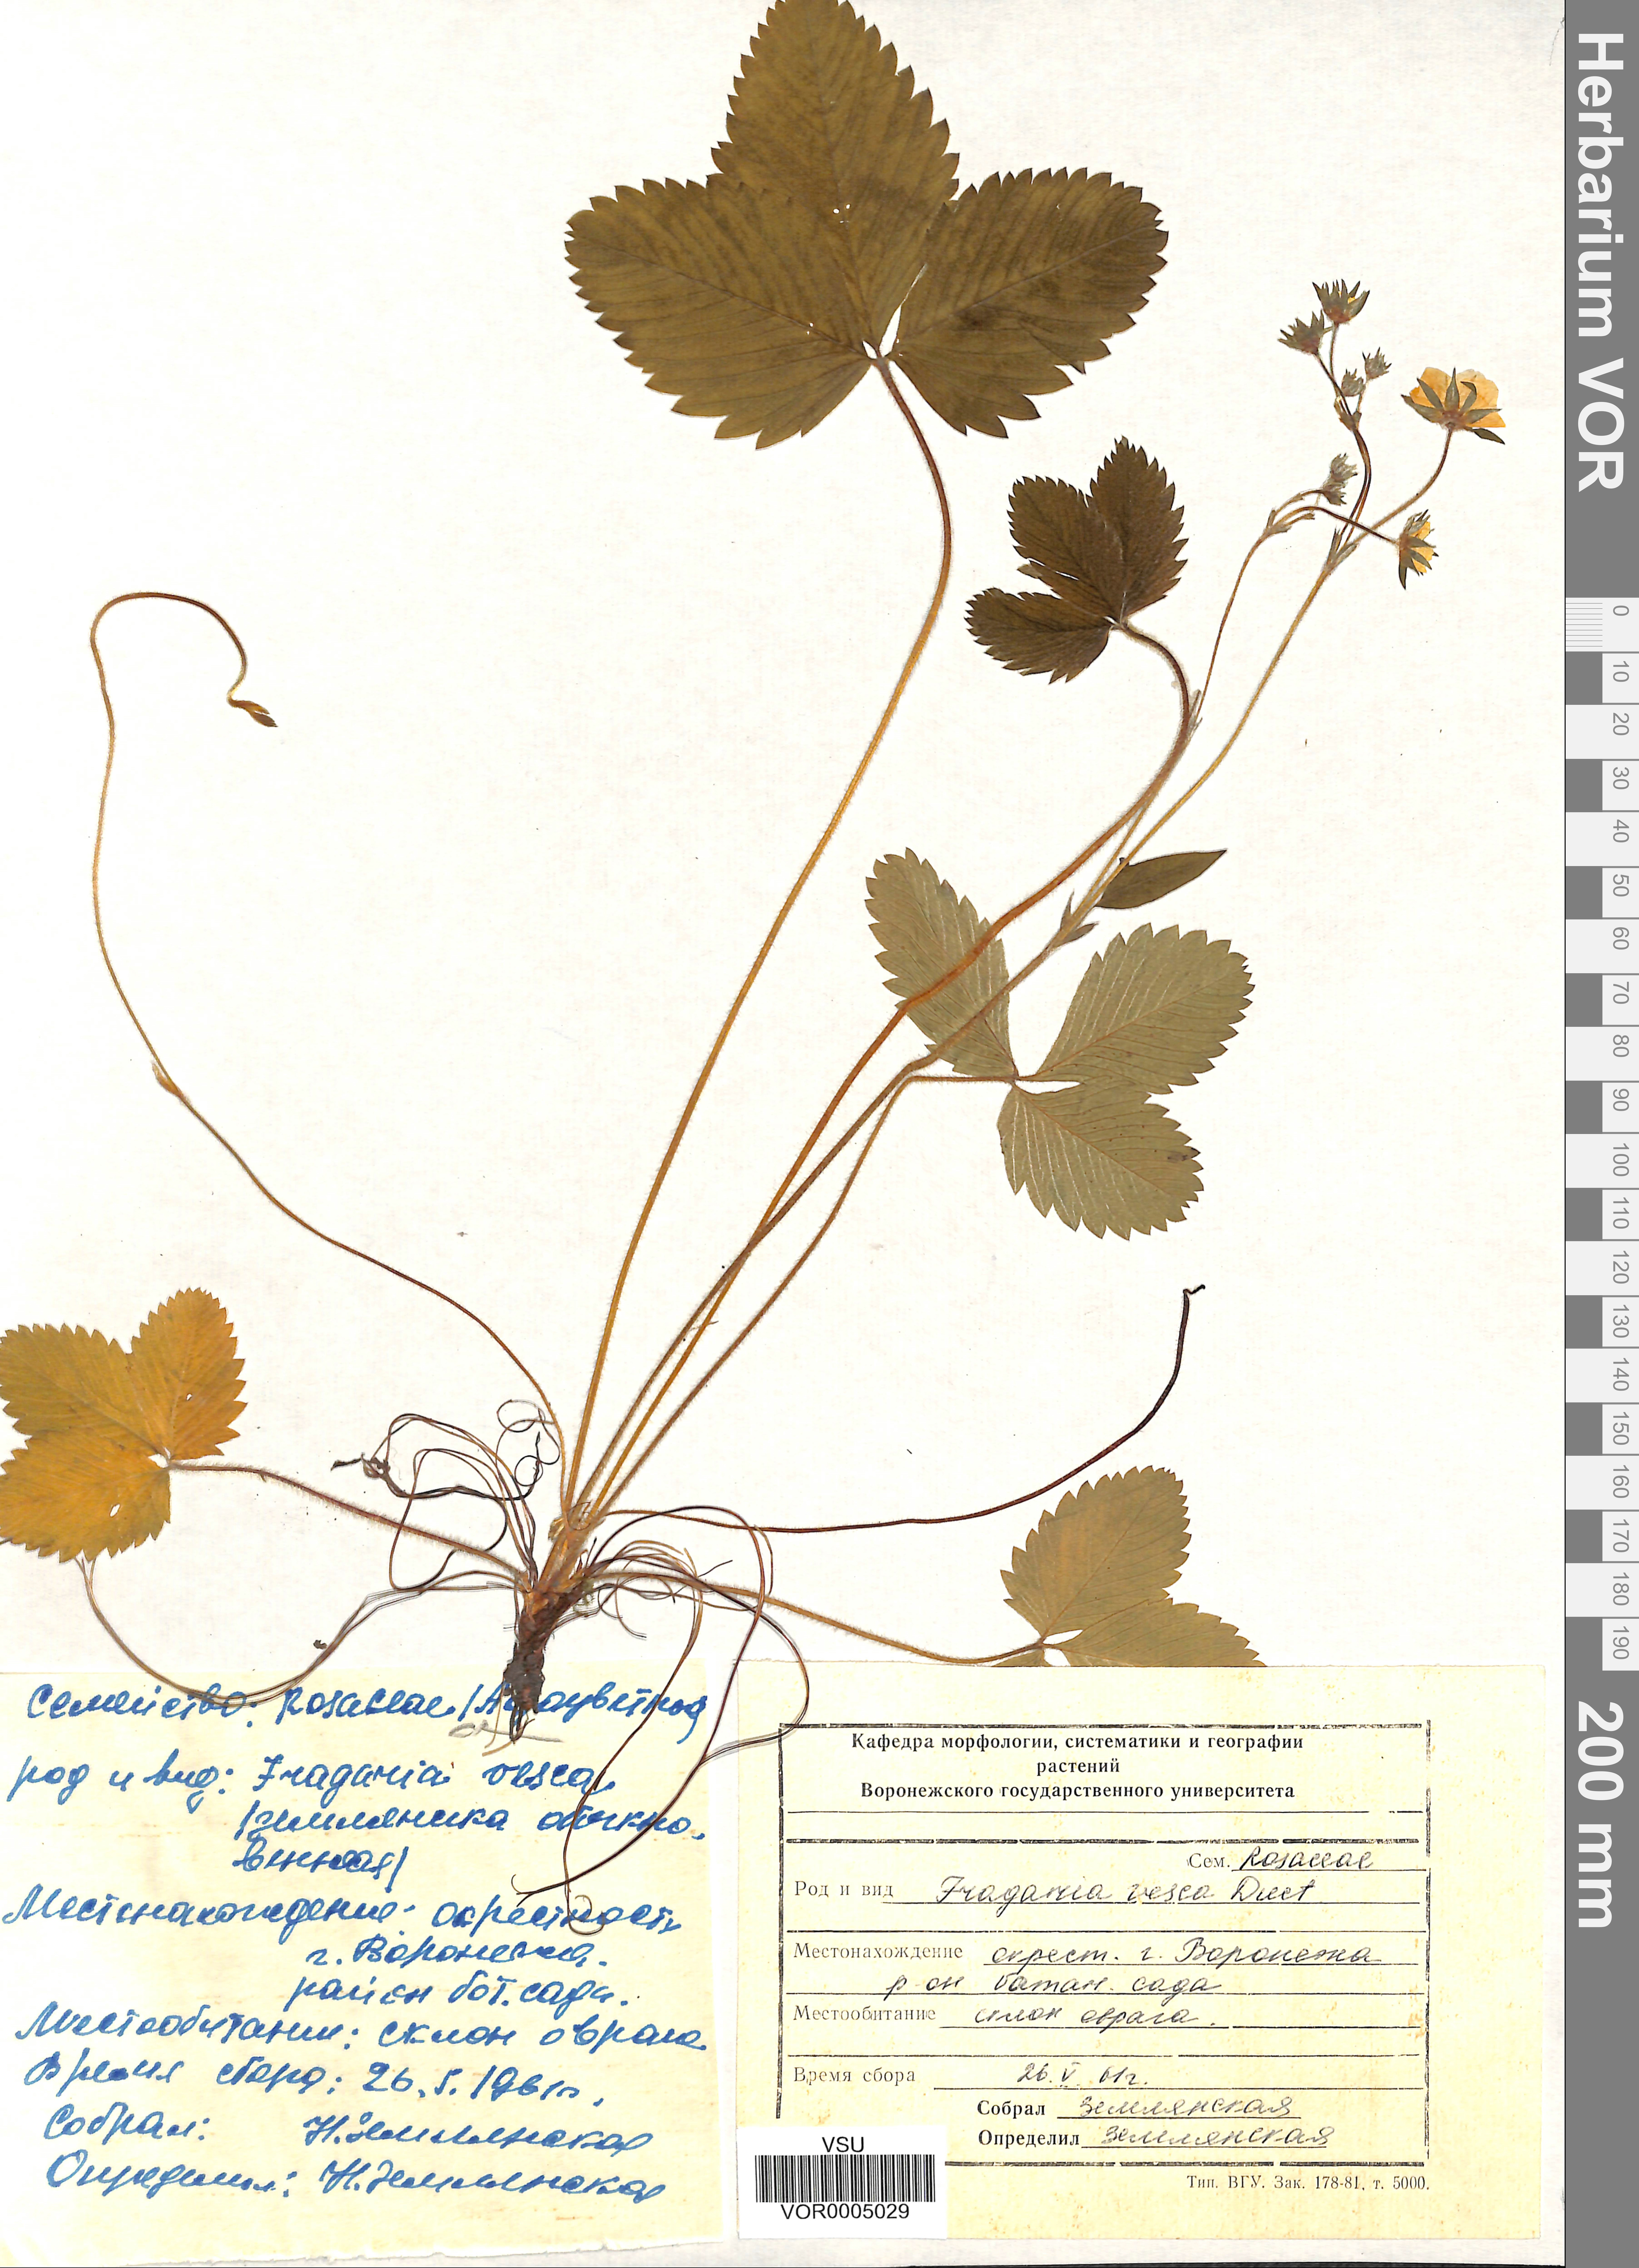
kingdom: Plantae
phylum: Tracheophyta
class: Magnoliopsida
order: Rosales
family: Rosaceae
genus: Fragaria
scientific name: Fragaria vesca
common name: Wild strawberry
